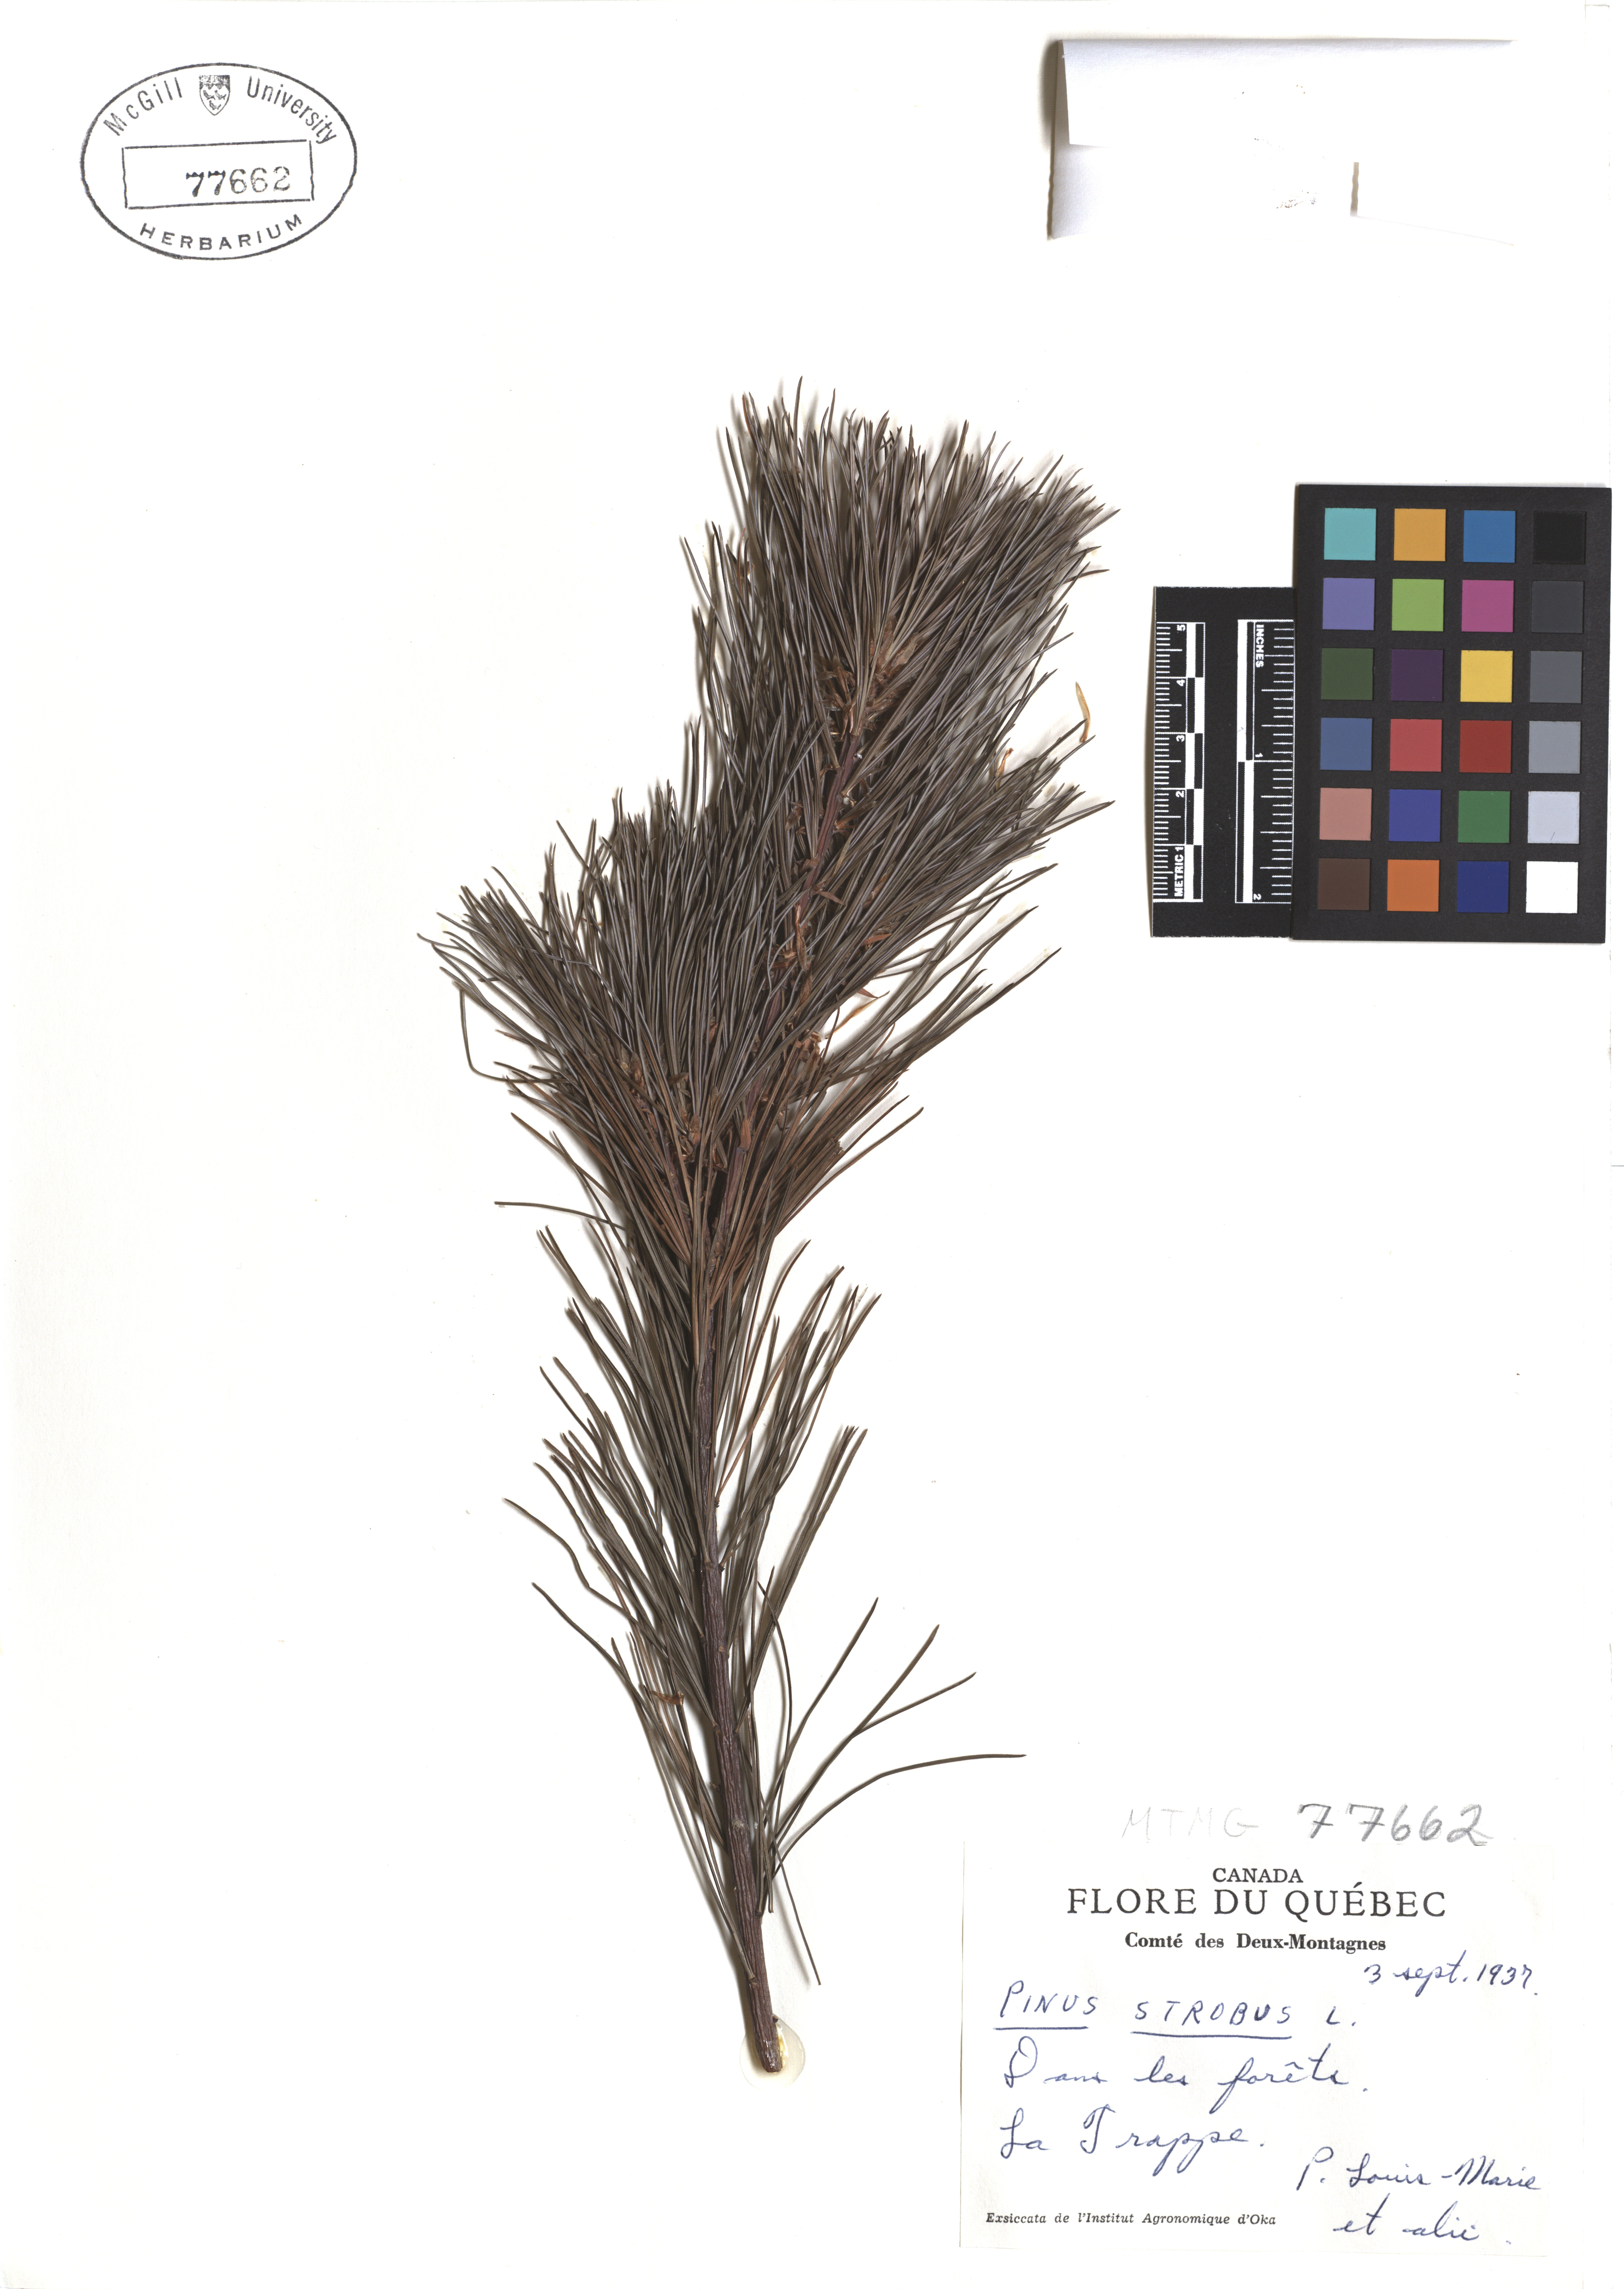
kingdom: Plantae
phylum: Tracheophyta
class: Pinopsida
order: Pinales
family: Pinaceae
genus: Pinus
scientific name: Pinus strobus
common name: Weymouth pine
